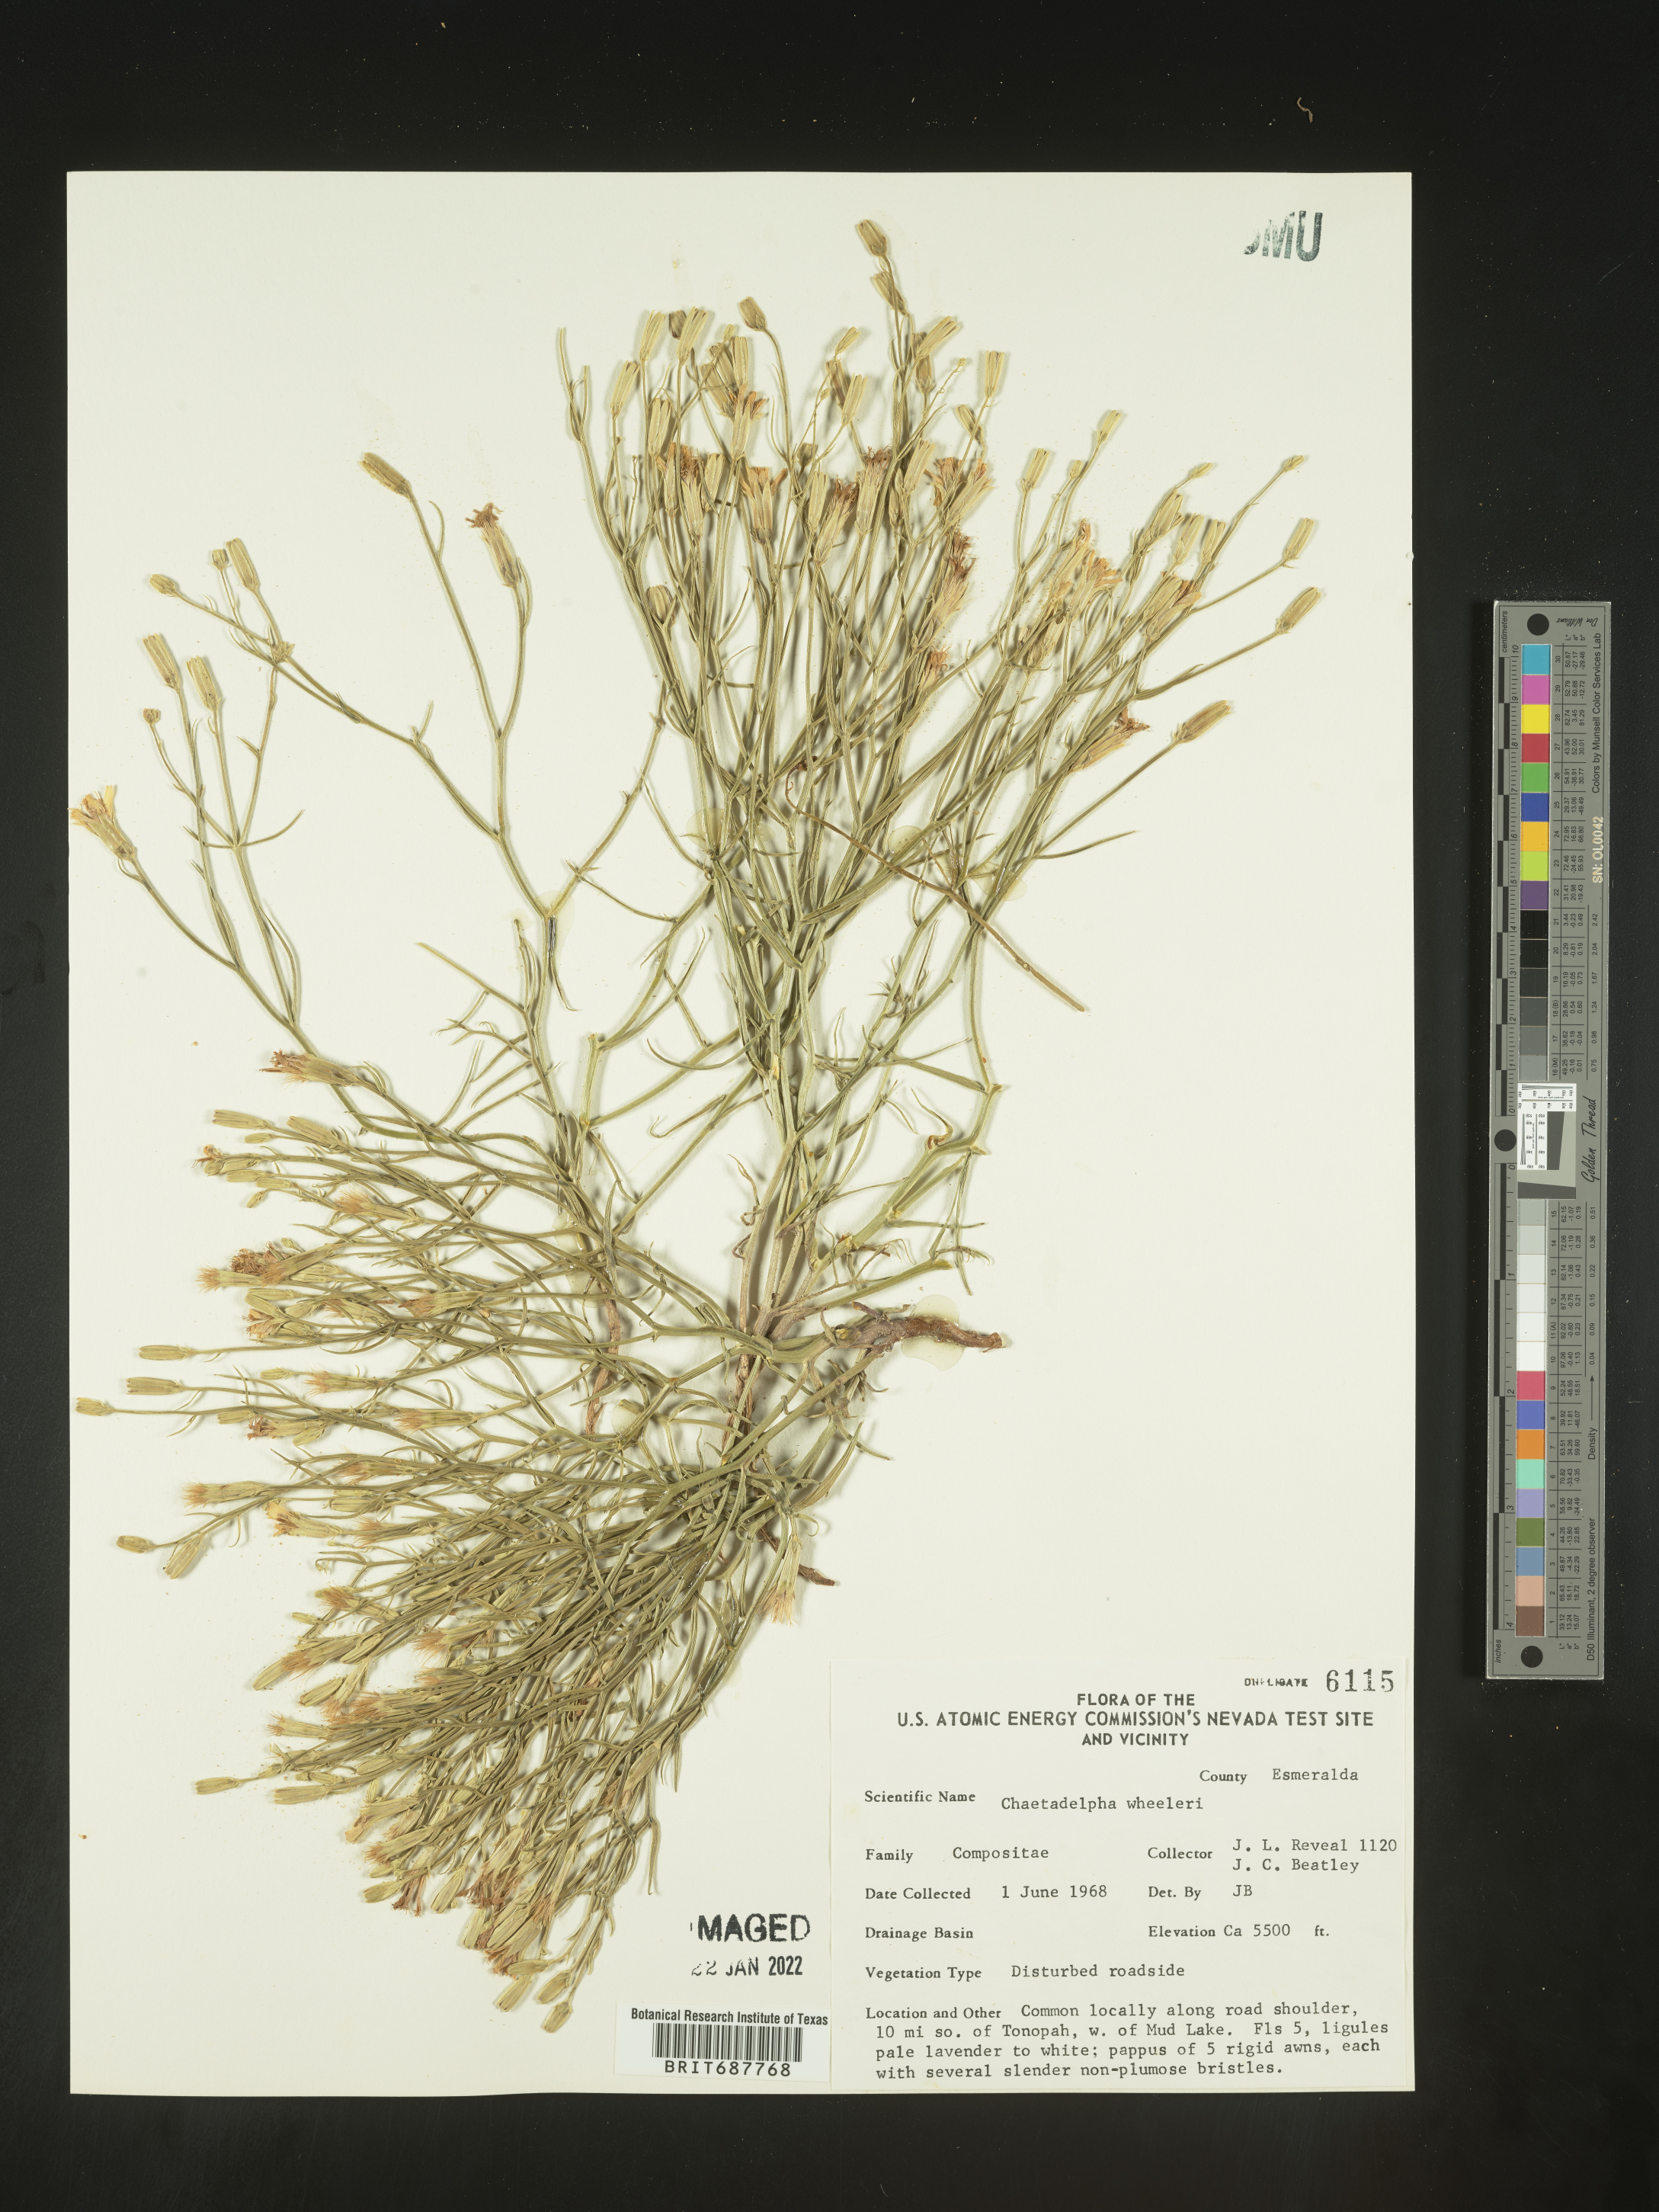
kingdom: Plantae
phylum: Tracheophyta
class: Magnoliopsida
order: Asterales
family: Asteraceae
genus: Chaetadelpha
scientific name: Chaetadelpha wheeleri
